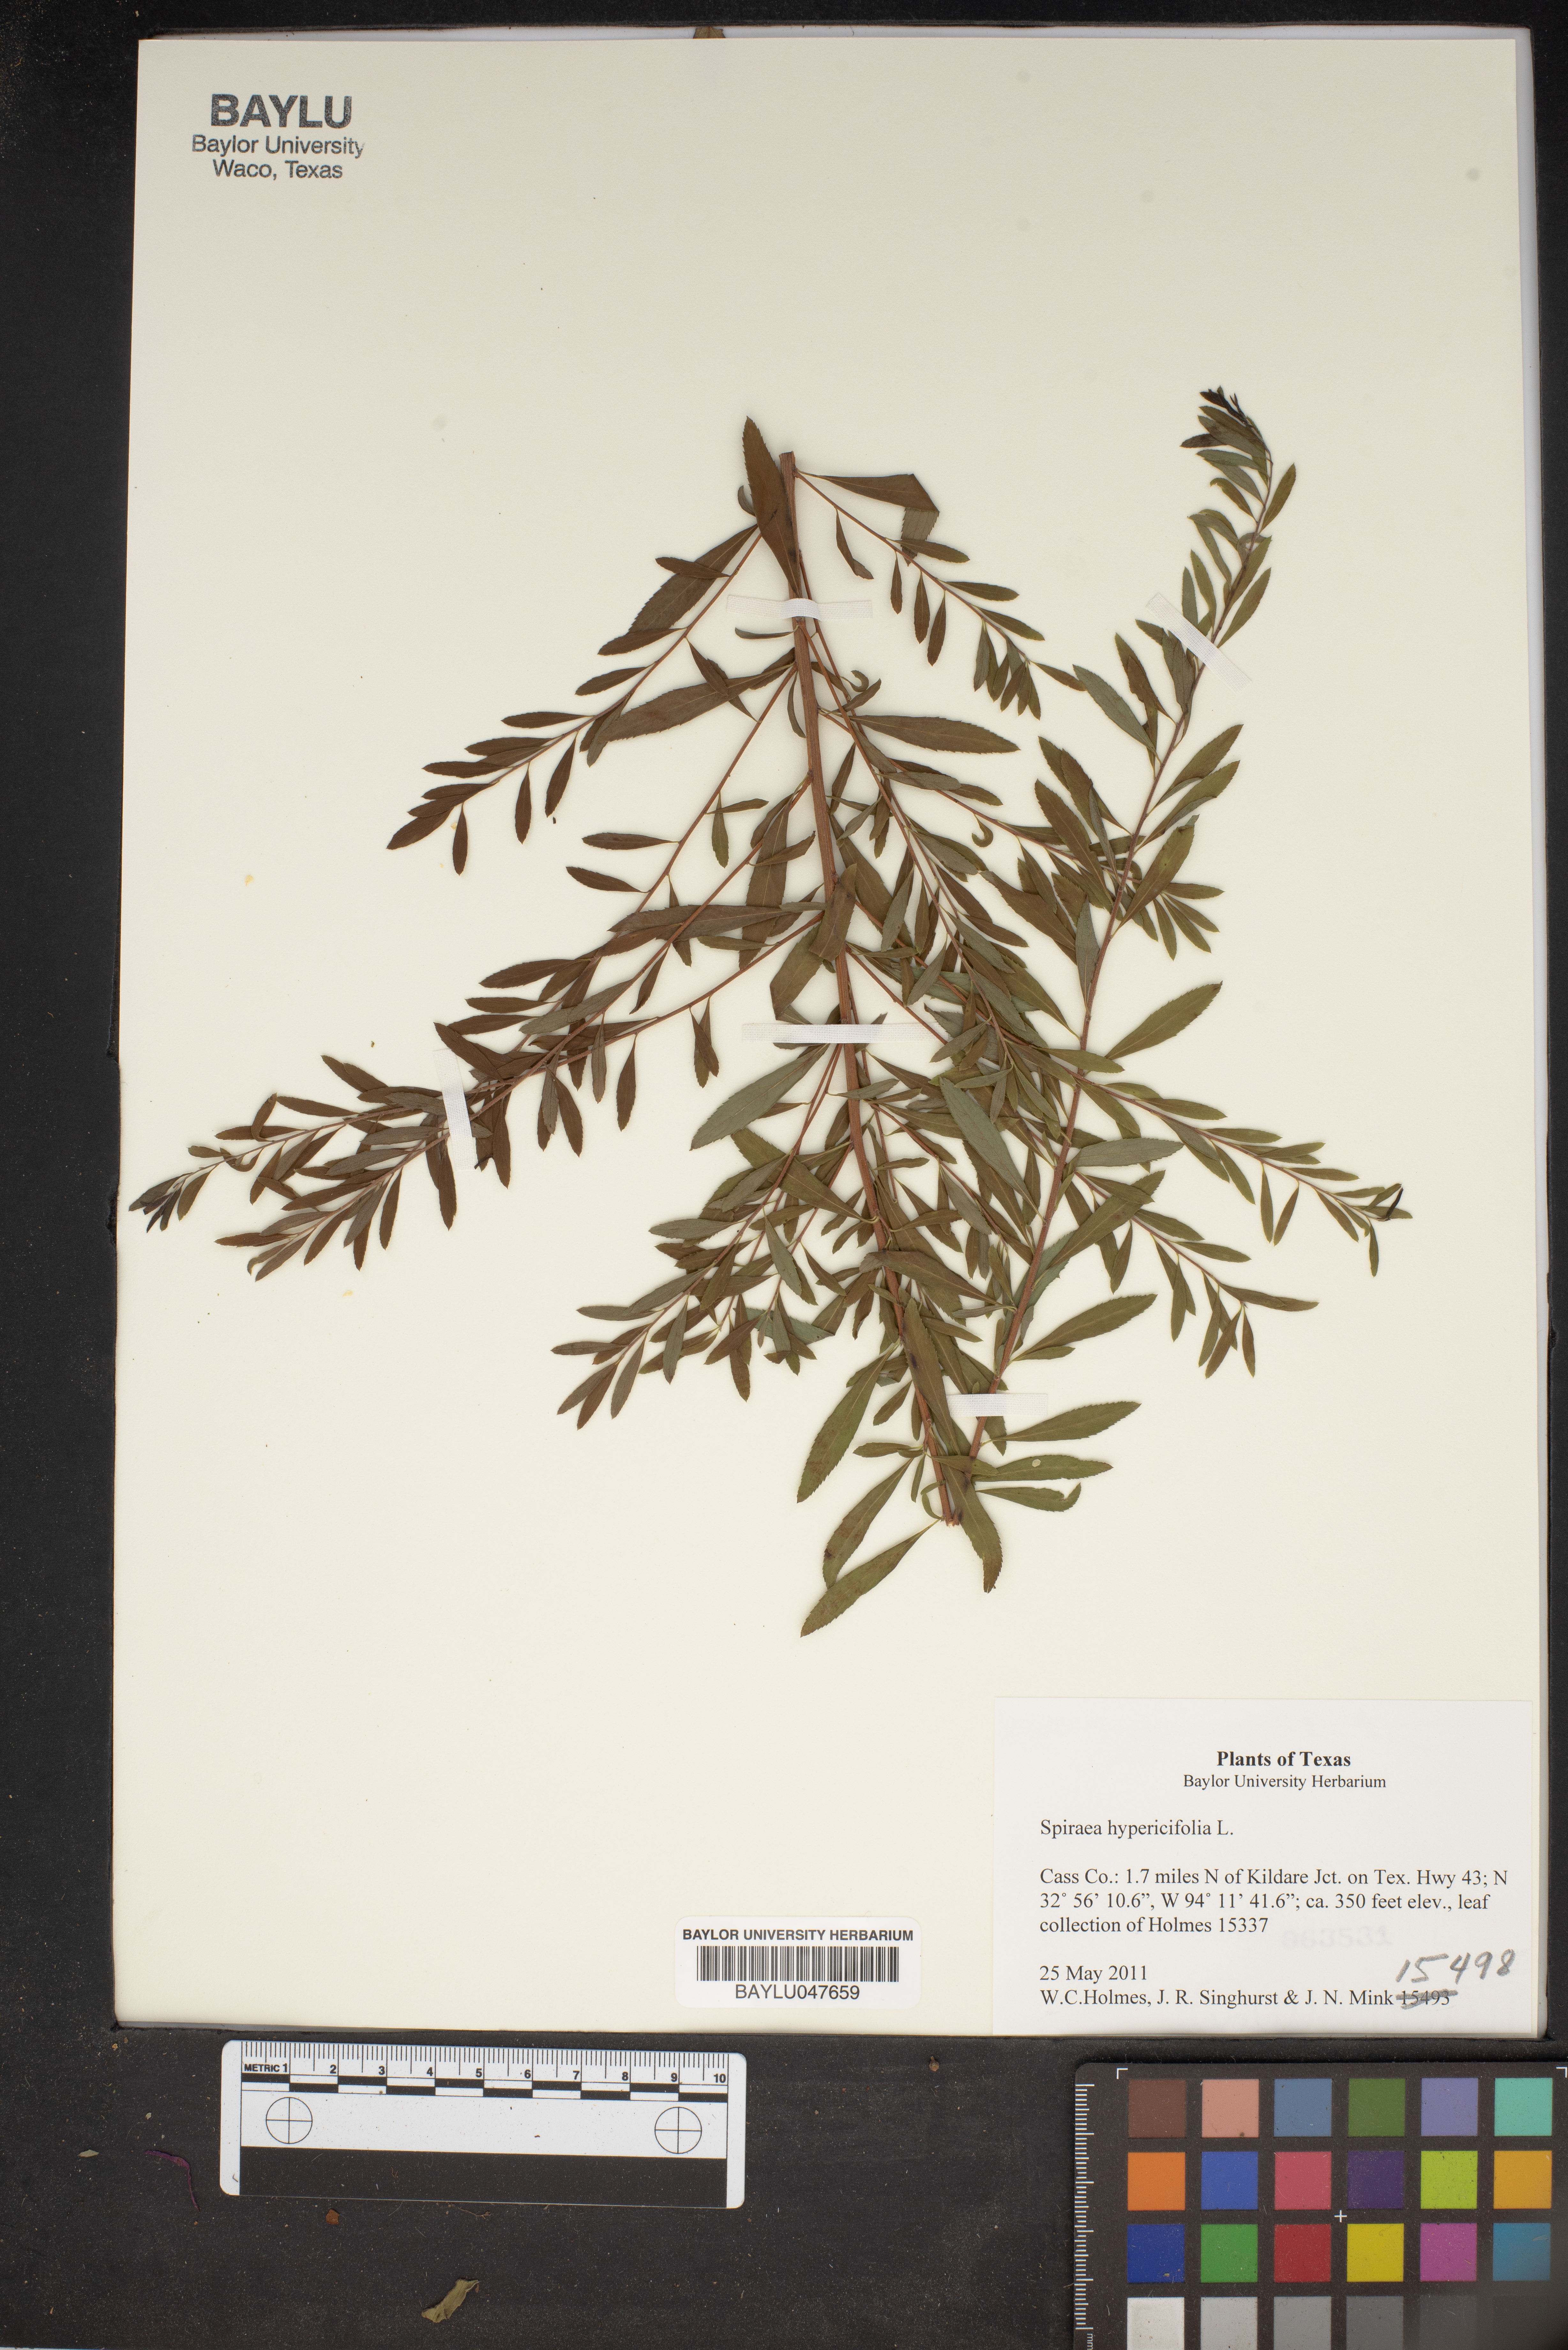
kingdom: Plantae
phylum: Tracheophyta
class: Magnoliopsida
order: Rosales
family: Rosaceae
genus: Spiraea
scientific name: Spiraea hypericifolia
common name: Iberian spirea
